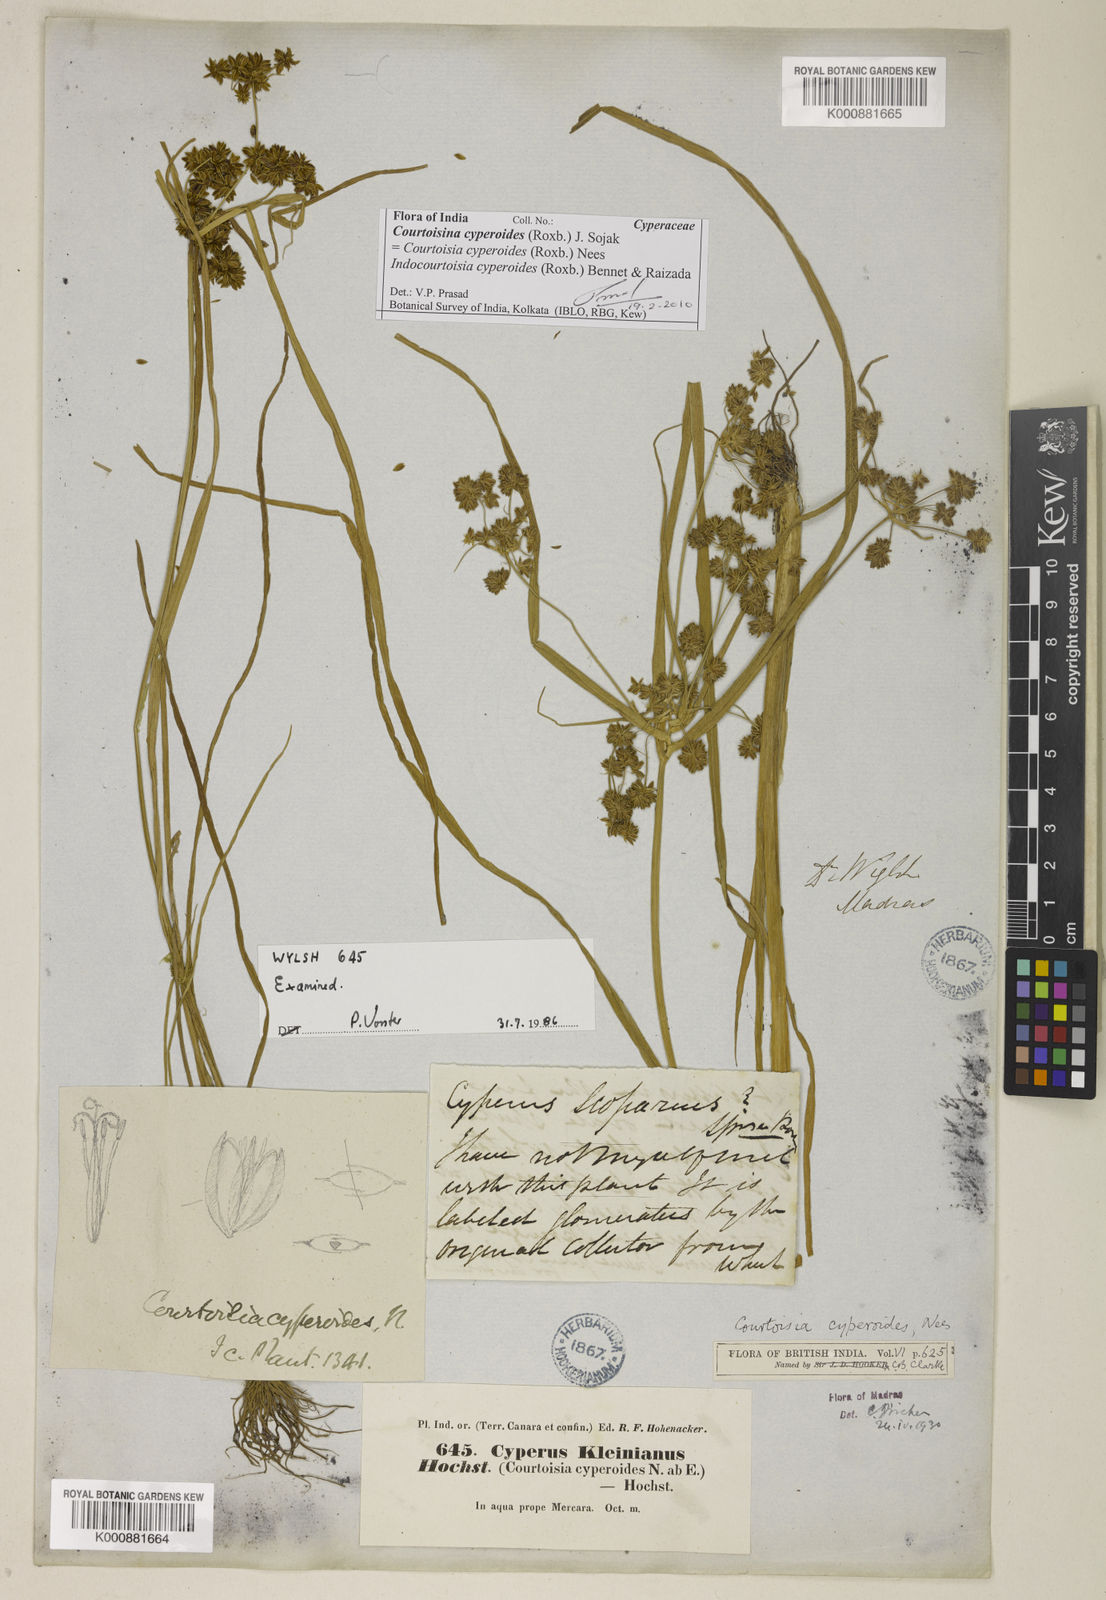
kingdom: Plantae
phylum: Tracheophyta
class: Liliopsida
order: Poales
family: Cyperaceae
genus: Cyperus
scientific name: Cyperus
